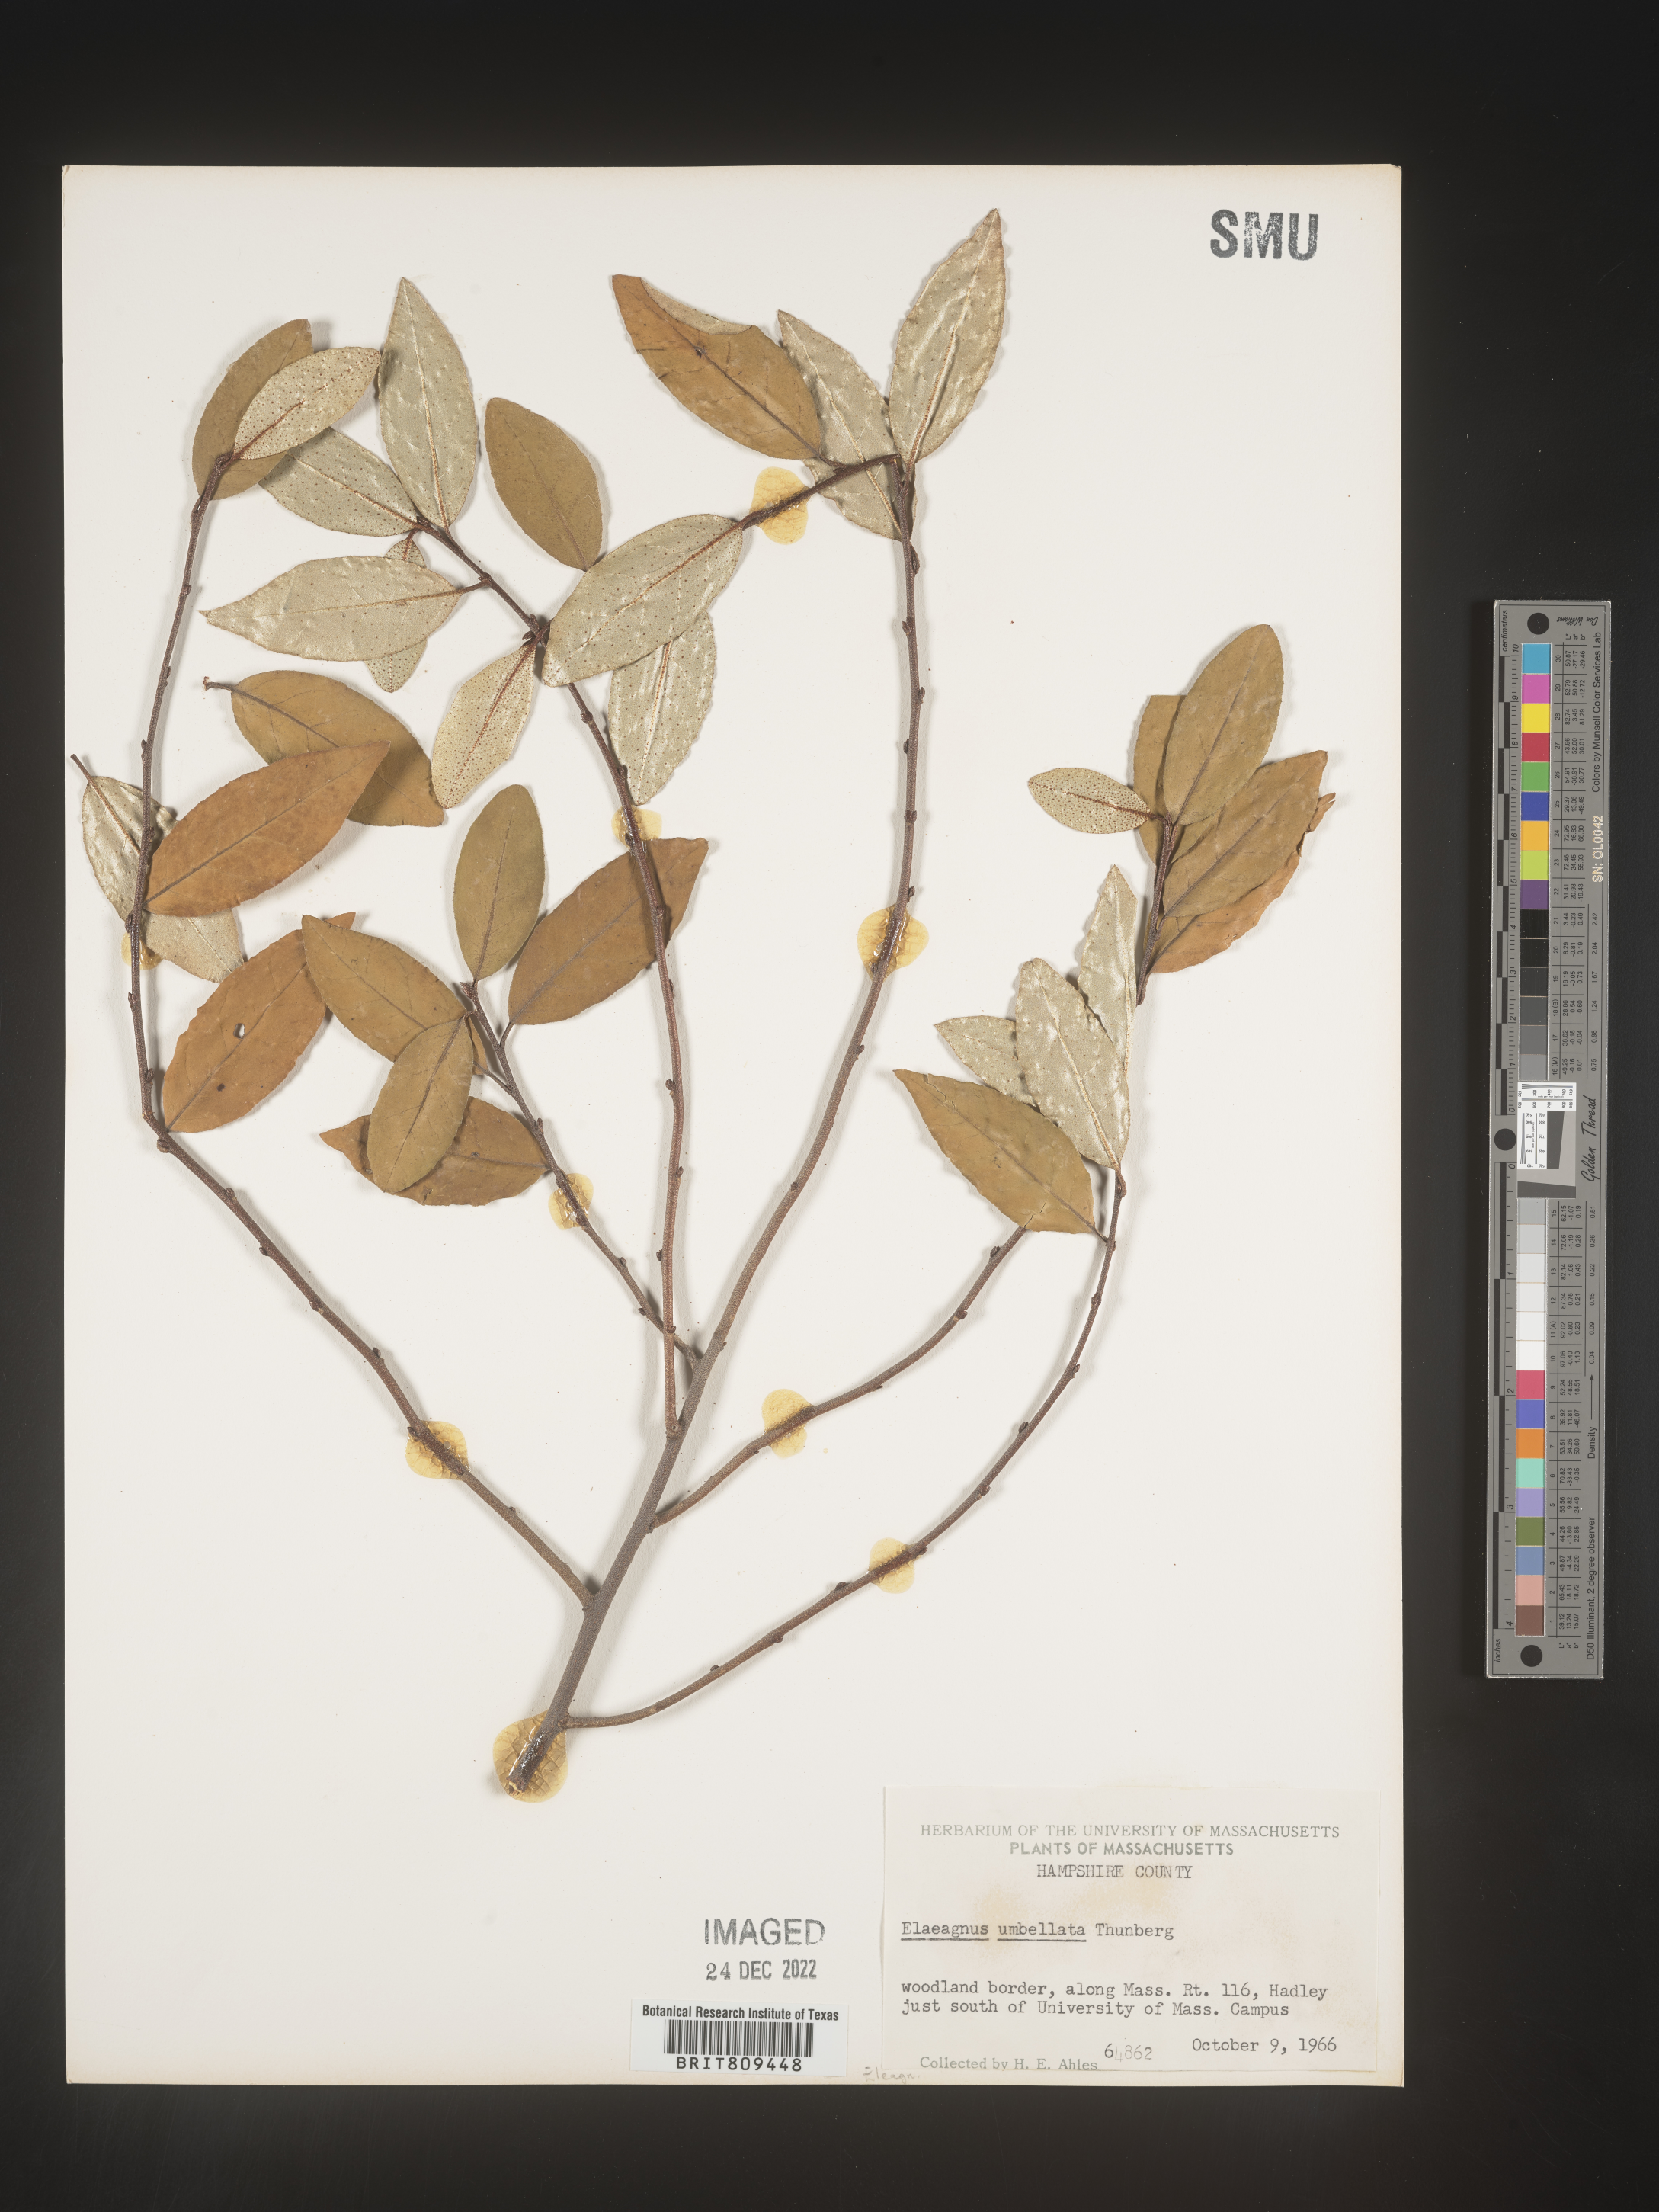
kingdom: Plantae
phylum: Tracheophyta
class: Magnoliopsida
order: Rosales
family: Elaeagnaceae
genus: Elaeagnus
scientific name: Elaeagnus
